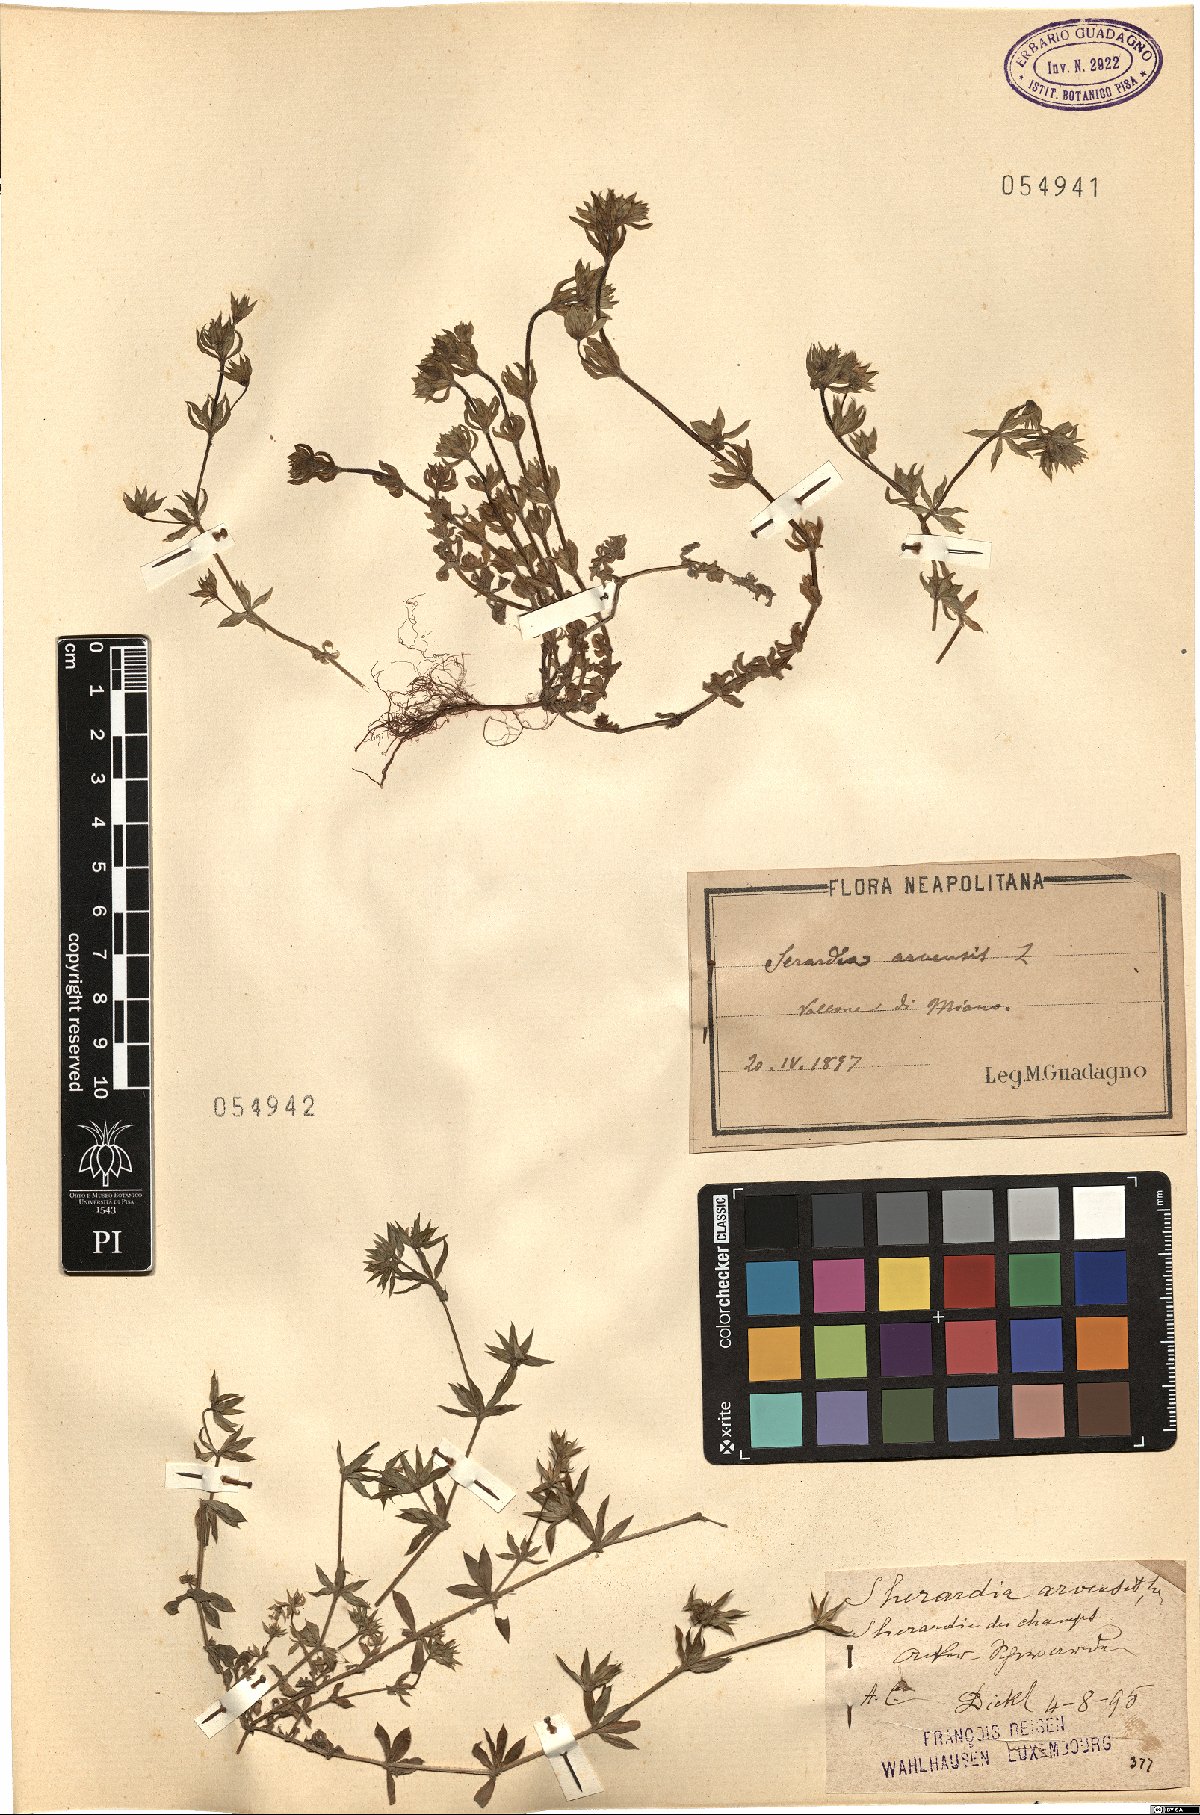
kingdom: Plantae
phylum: Tracheophyta
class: Magnoliopsida
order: Gentianales
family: Rubiaceae
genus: Sherardia
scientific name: Sherardia arvensis
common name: Field madder
